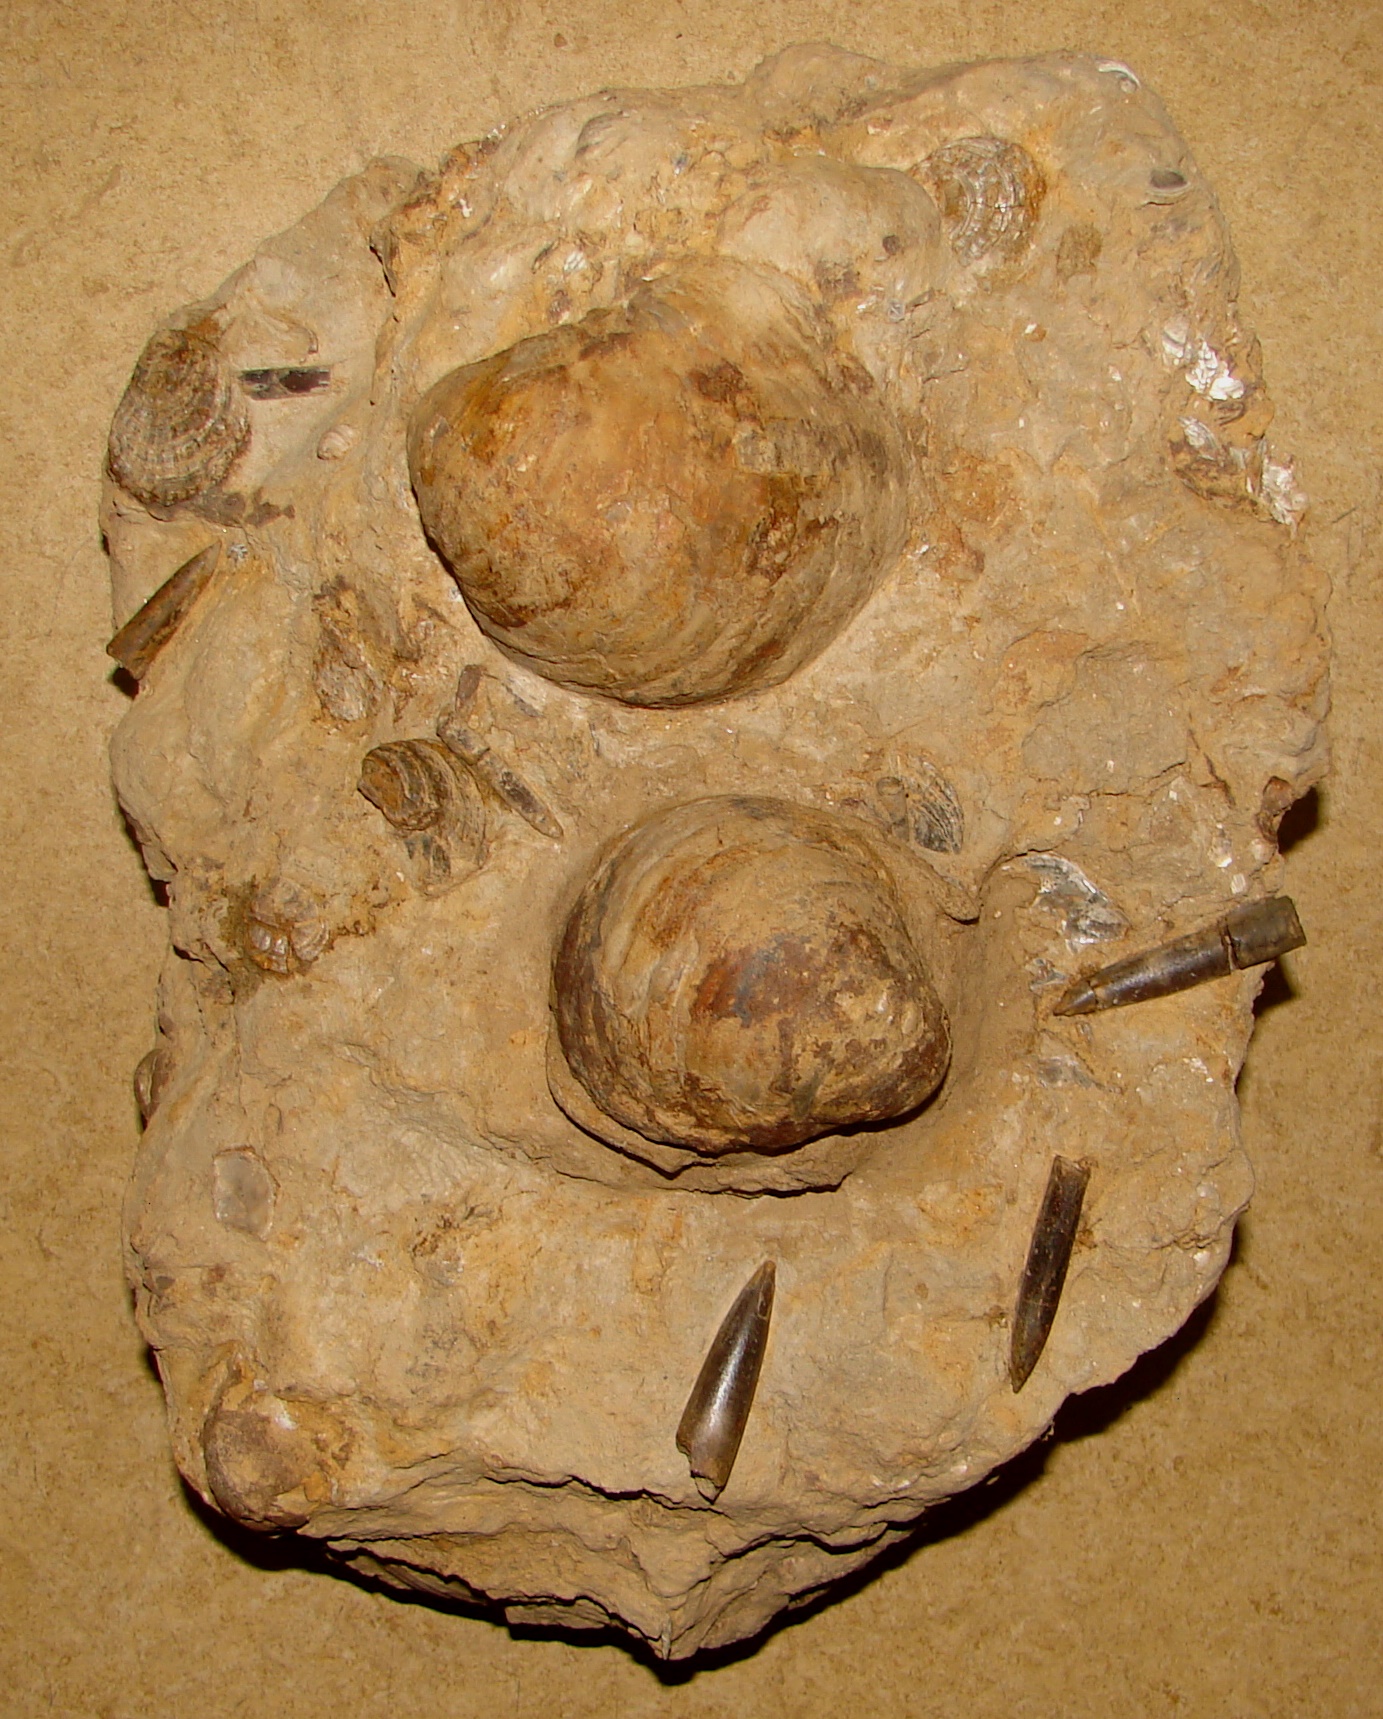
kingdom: Animalia
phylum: Mollusca
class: Bivalvia
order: Ostreida
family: Gryphaeidae
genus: Gryphaea
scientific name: Gryphaea cymbium
